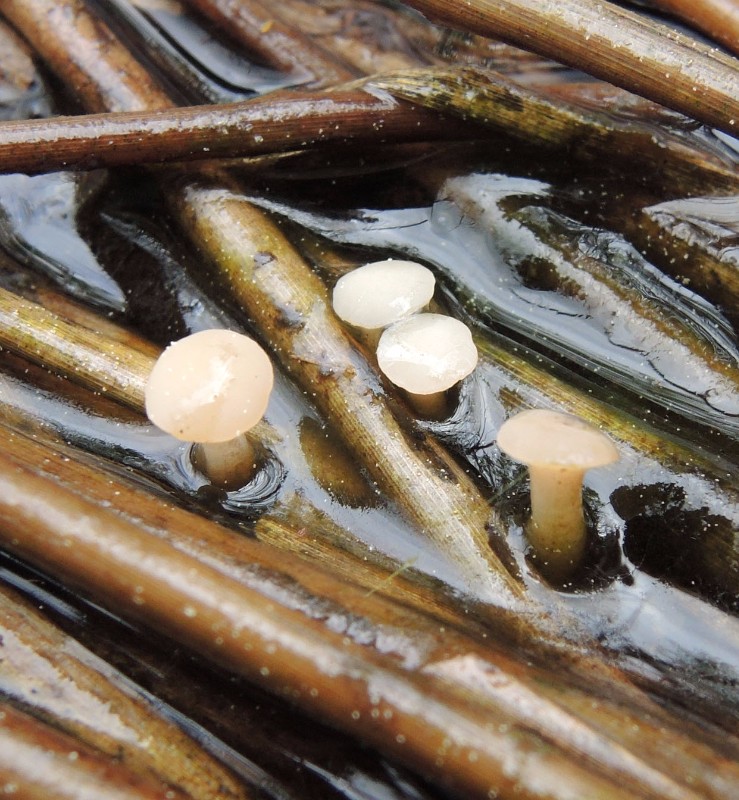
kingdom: Fungi
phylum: Ascomycota
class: Leotiomycetes
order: Helotiales
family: Tricladiaceae
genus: Cudoniella
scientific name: Cudoniella
